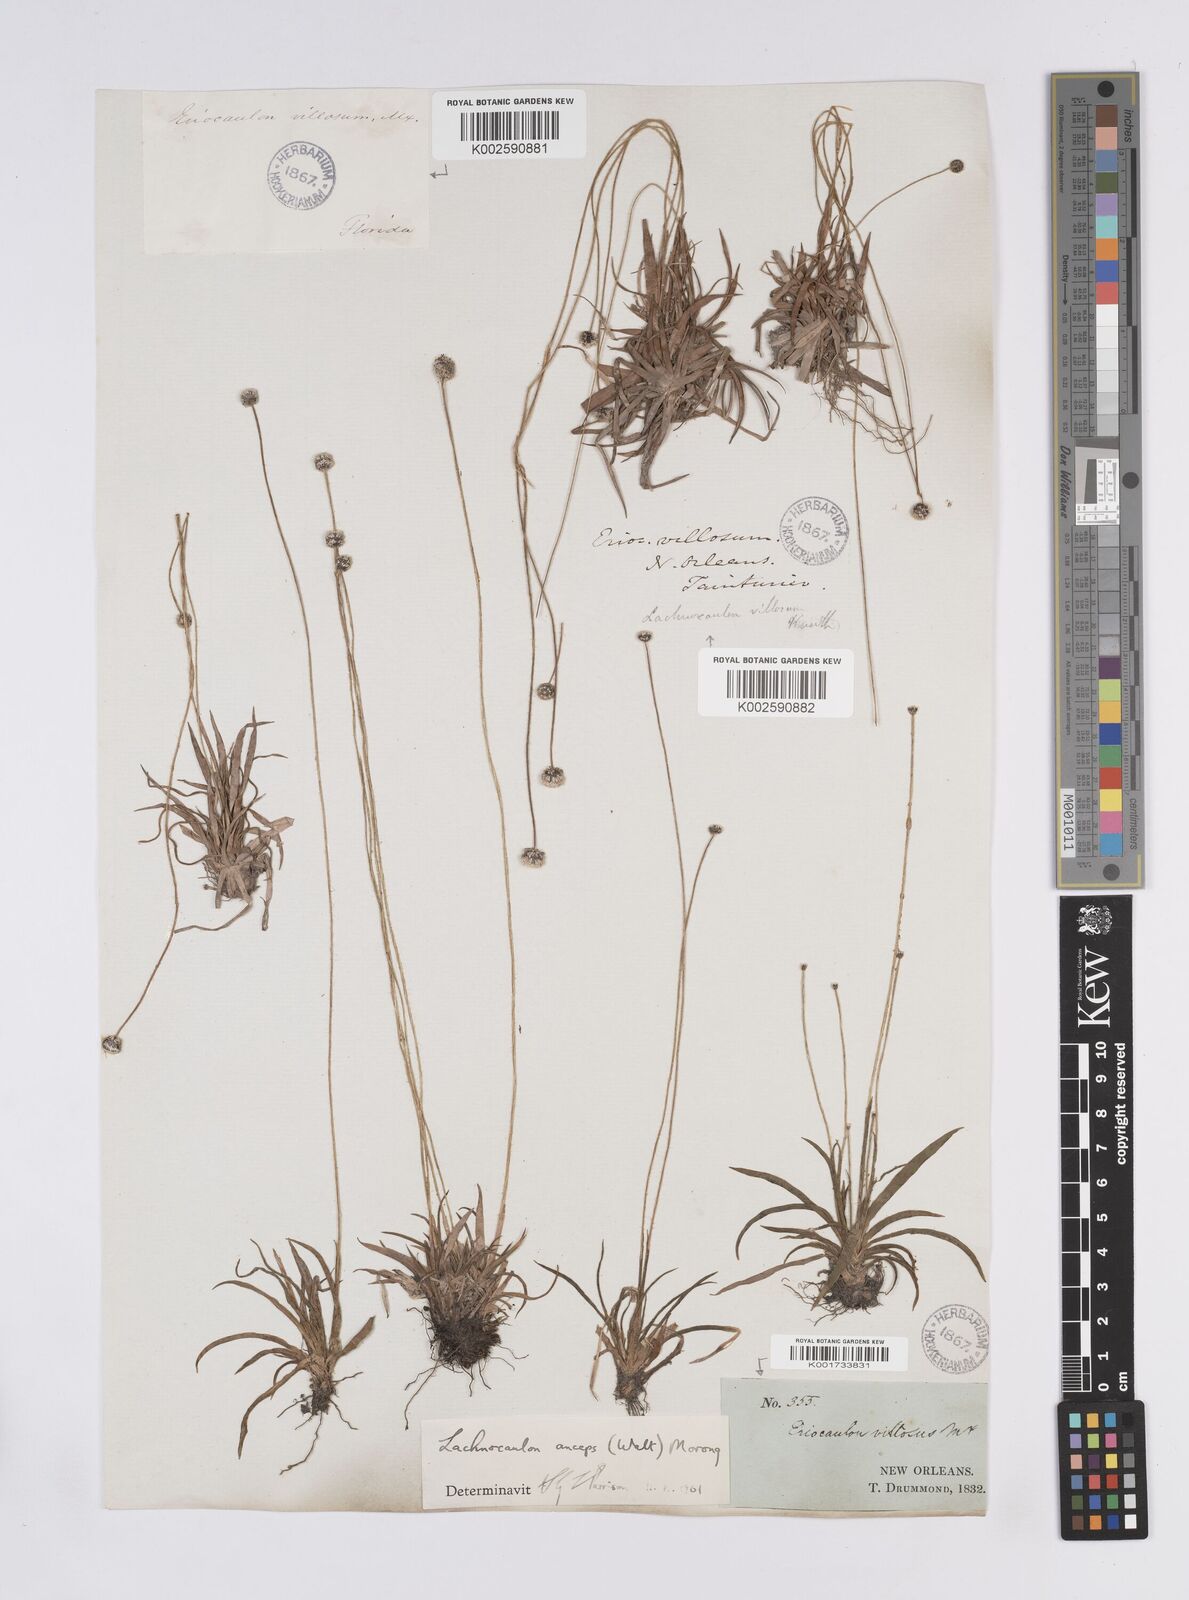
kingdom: Plantae
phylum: Tracheophyta
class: Liliopsida
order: Poales
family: Eriocaulaceae
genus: Paepalanthus
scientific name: Paepalanthus anceps
